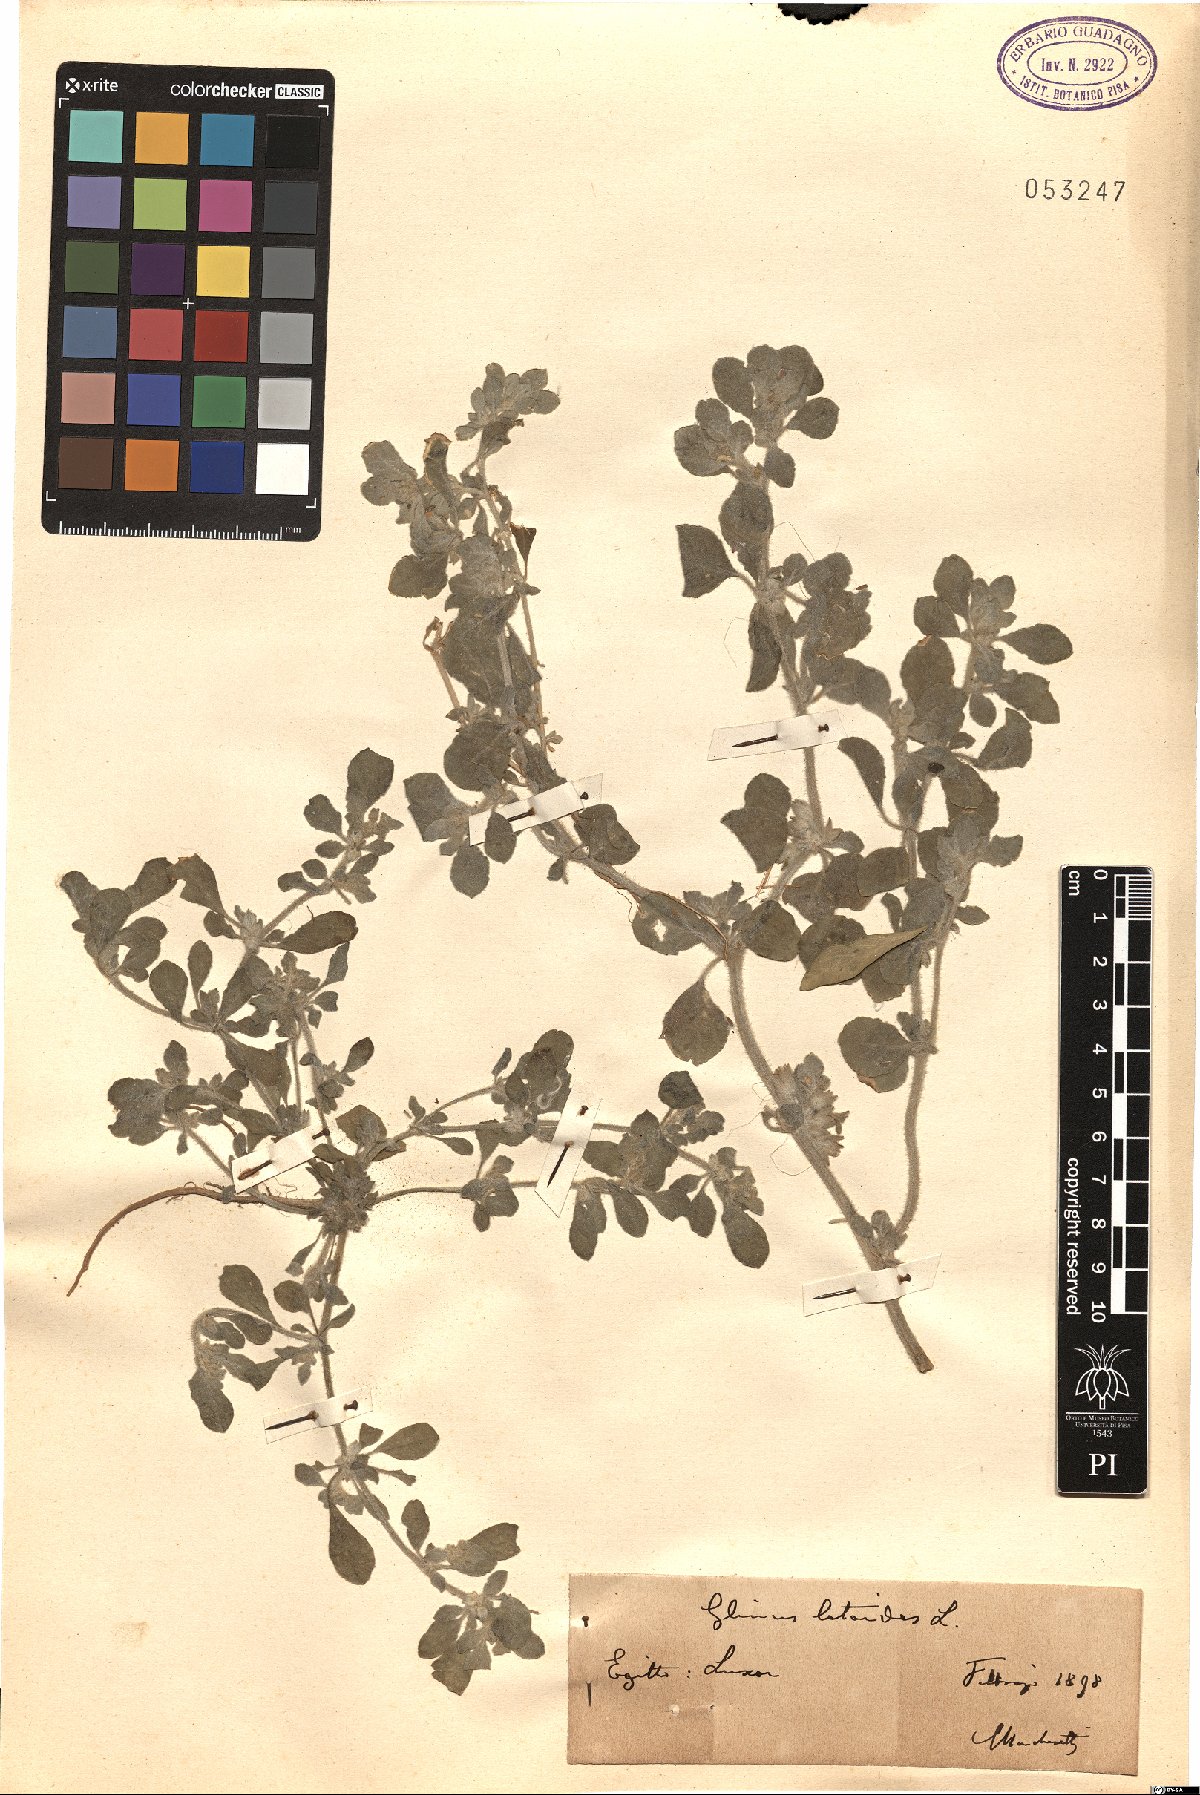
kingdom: Plantae
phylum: Tracheophyta
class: Magnoliopsida
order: Caryophyllales
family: Molluginaceae
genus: Glinus
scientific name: Glinus lotoides
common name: Lotus sweetjuice
